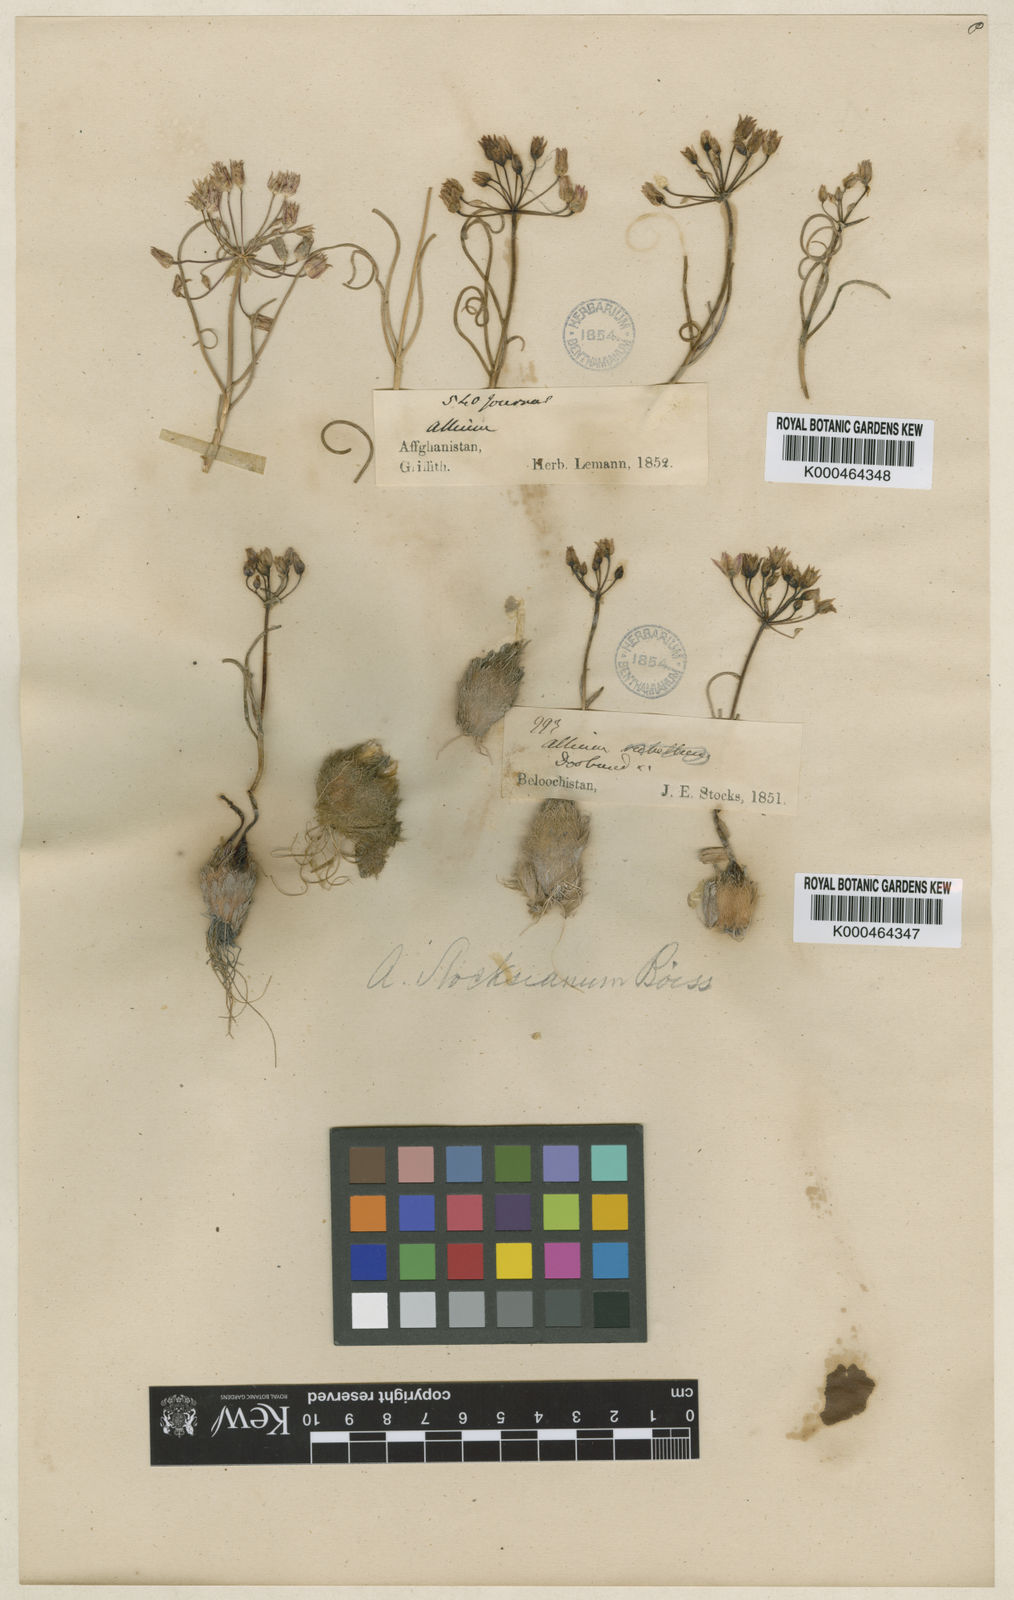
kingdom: Plantae
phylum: Tracheophyta
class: Liliopsida
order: Asparagales
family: Amaryllidaceae
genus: Allium
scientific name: Allium stocksianum
